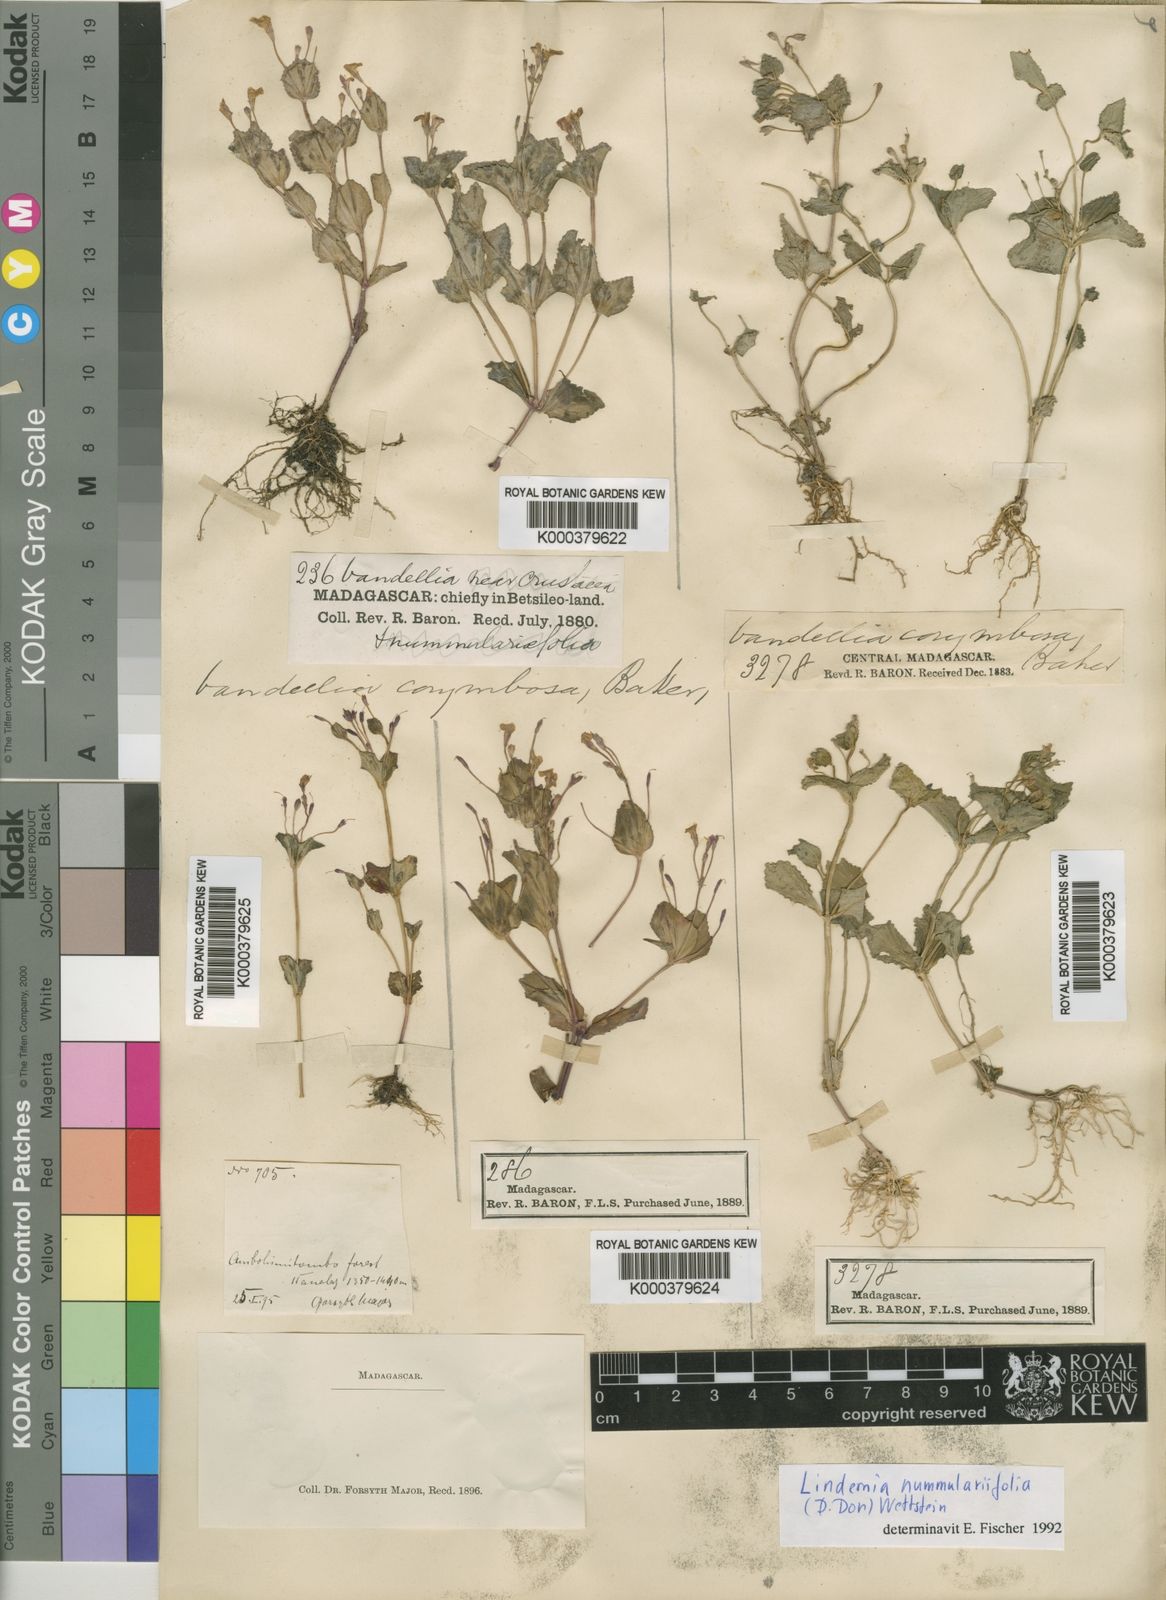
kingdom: Plantae
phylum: Tracheophyta
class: Magnoliopsida
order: Lamiales
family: Linderniaceae
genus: Lindernia
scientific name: Lindernia
